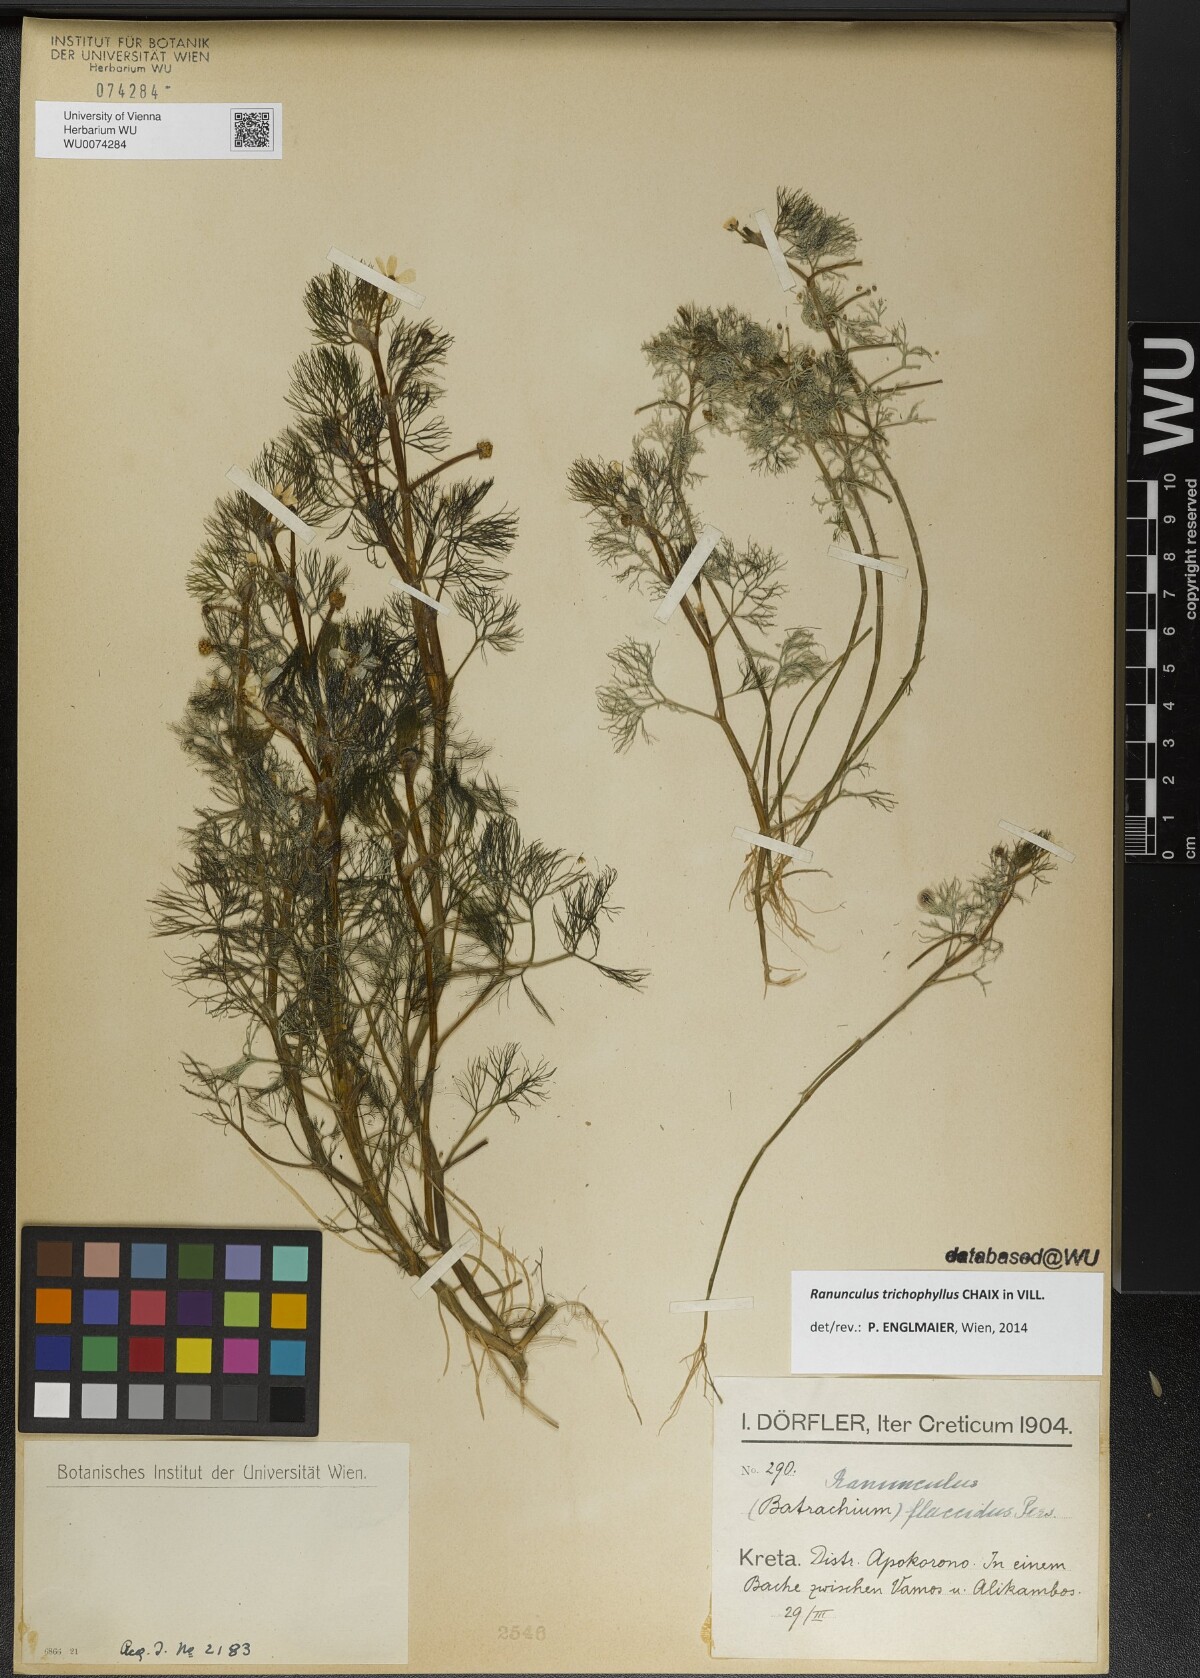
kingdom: Plantae
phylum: Tracheophyta
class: Magnoliopsida
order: Ranunculales
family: Ranunculaceae
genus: Ranunculus
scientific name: Ranunculus trichophyllus
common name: Thread-leaved water-crowfoot
